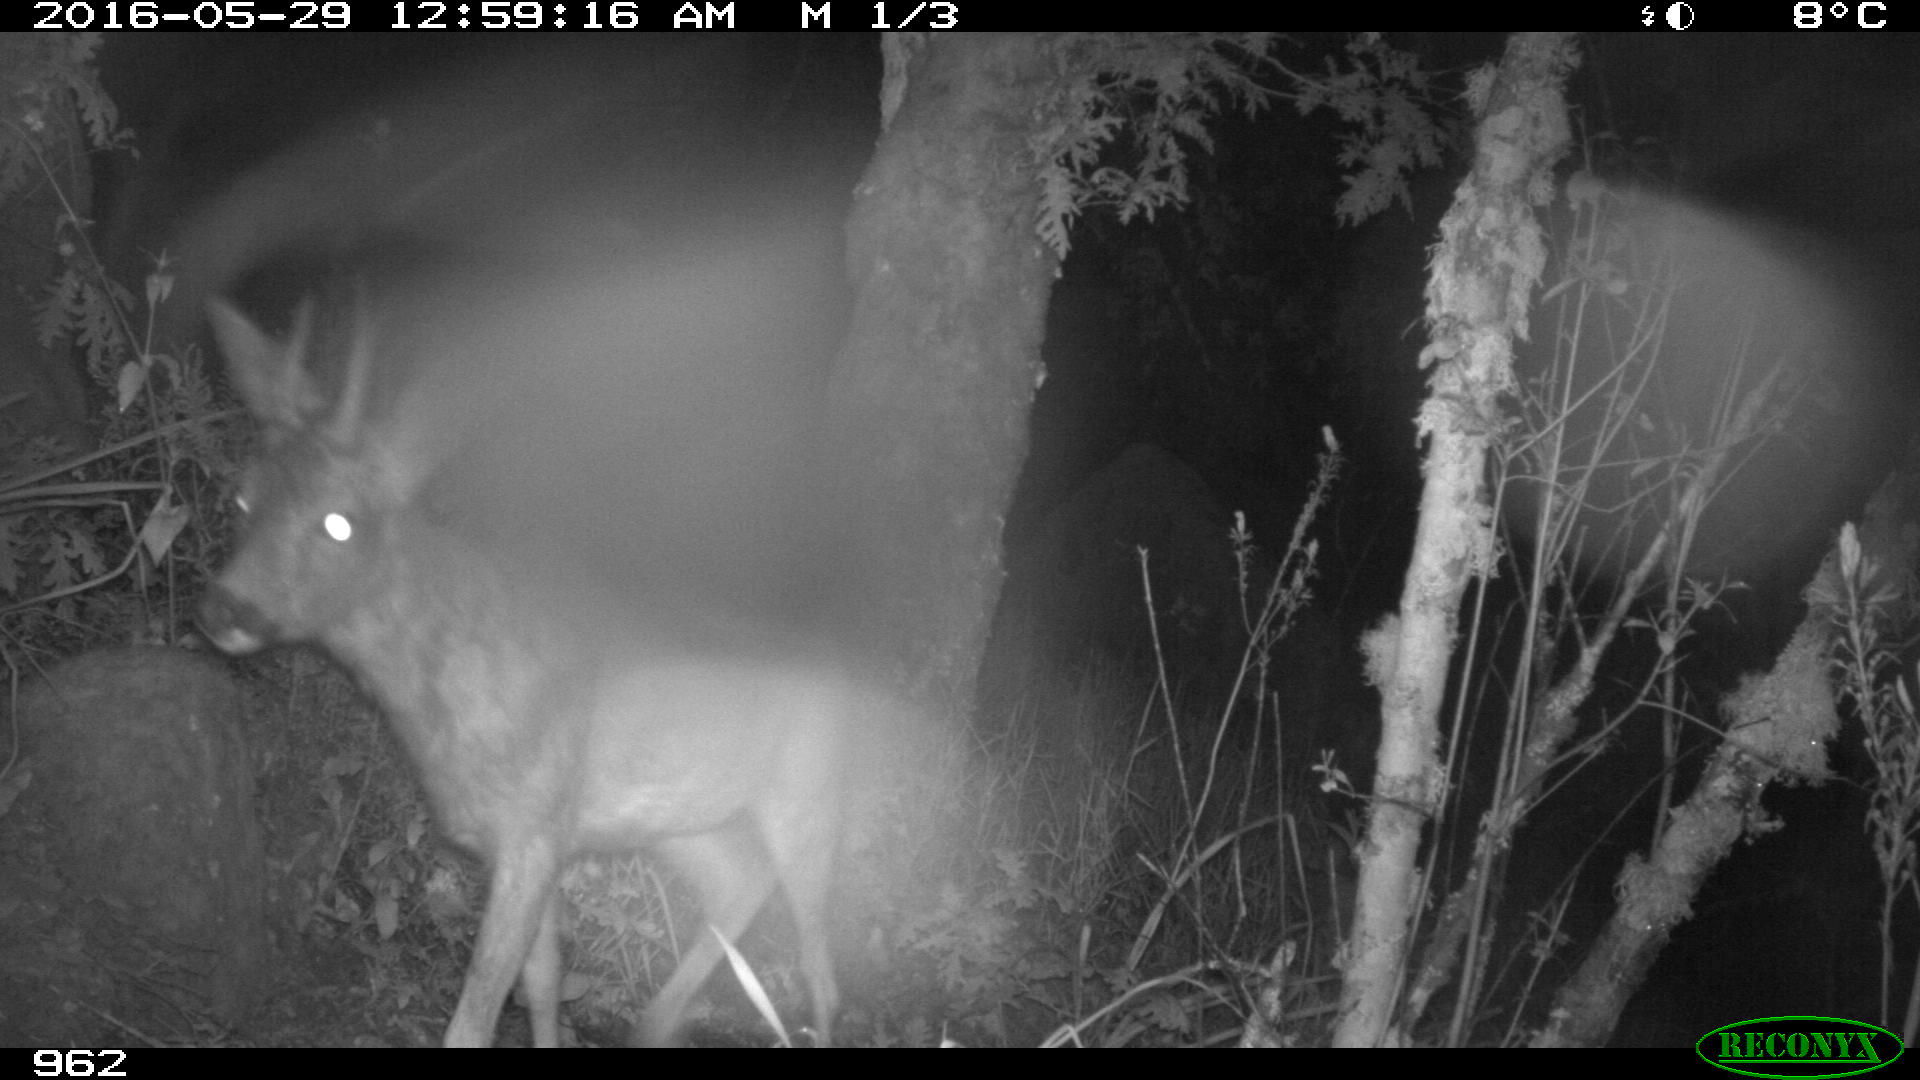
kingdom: Animalia
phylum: Chordata
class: Mammalia
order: Artiodactyla
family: Cervidae
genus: Capreolus
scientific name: Capreolus capreolus
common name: Western roe deer
